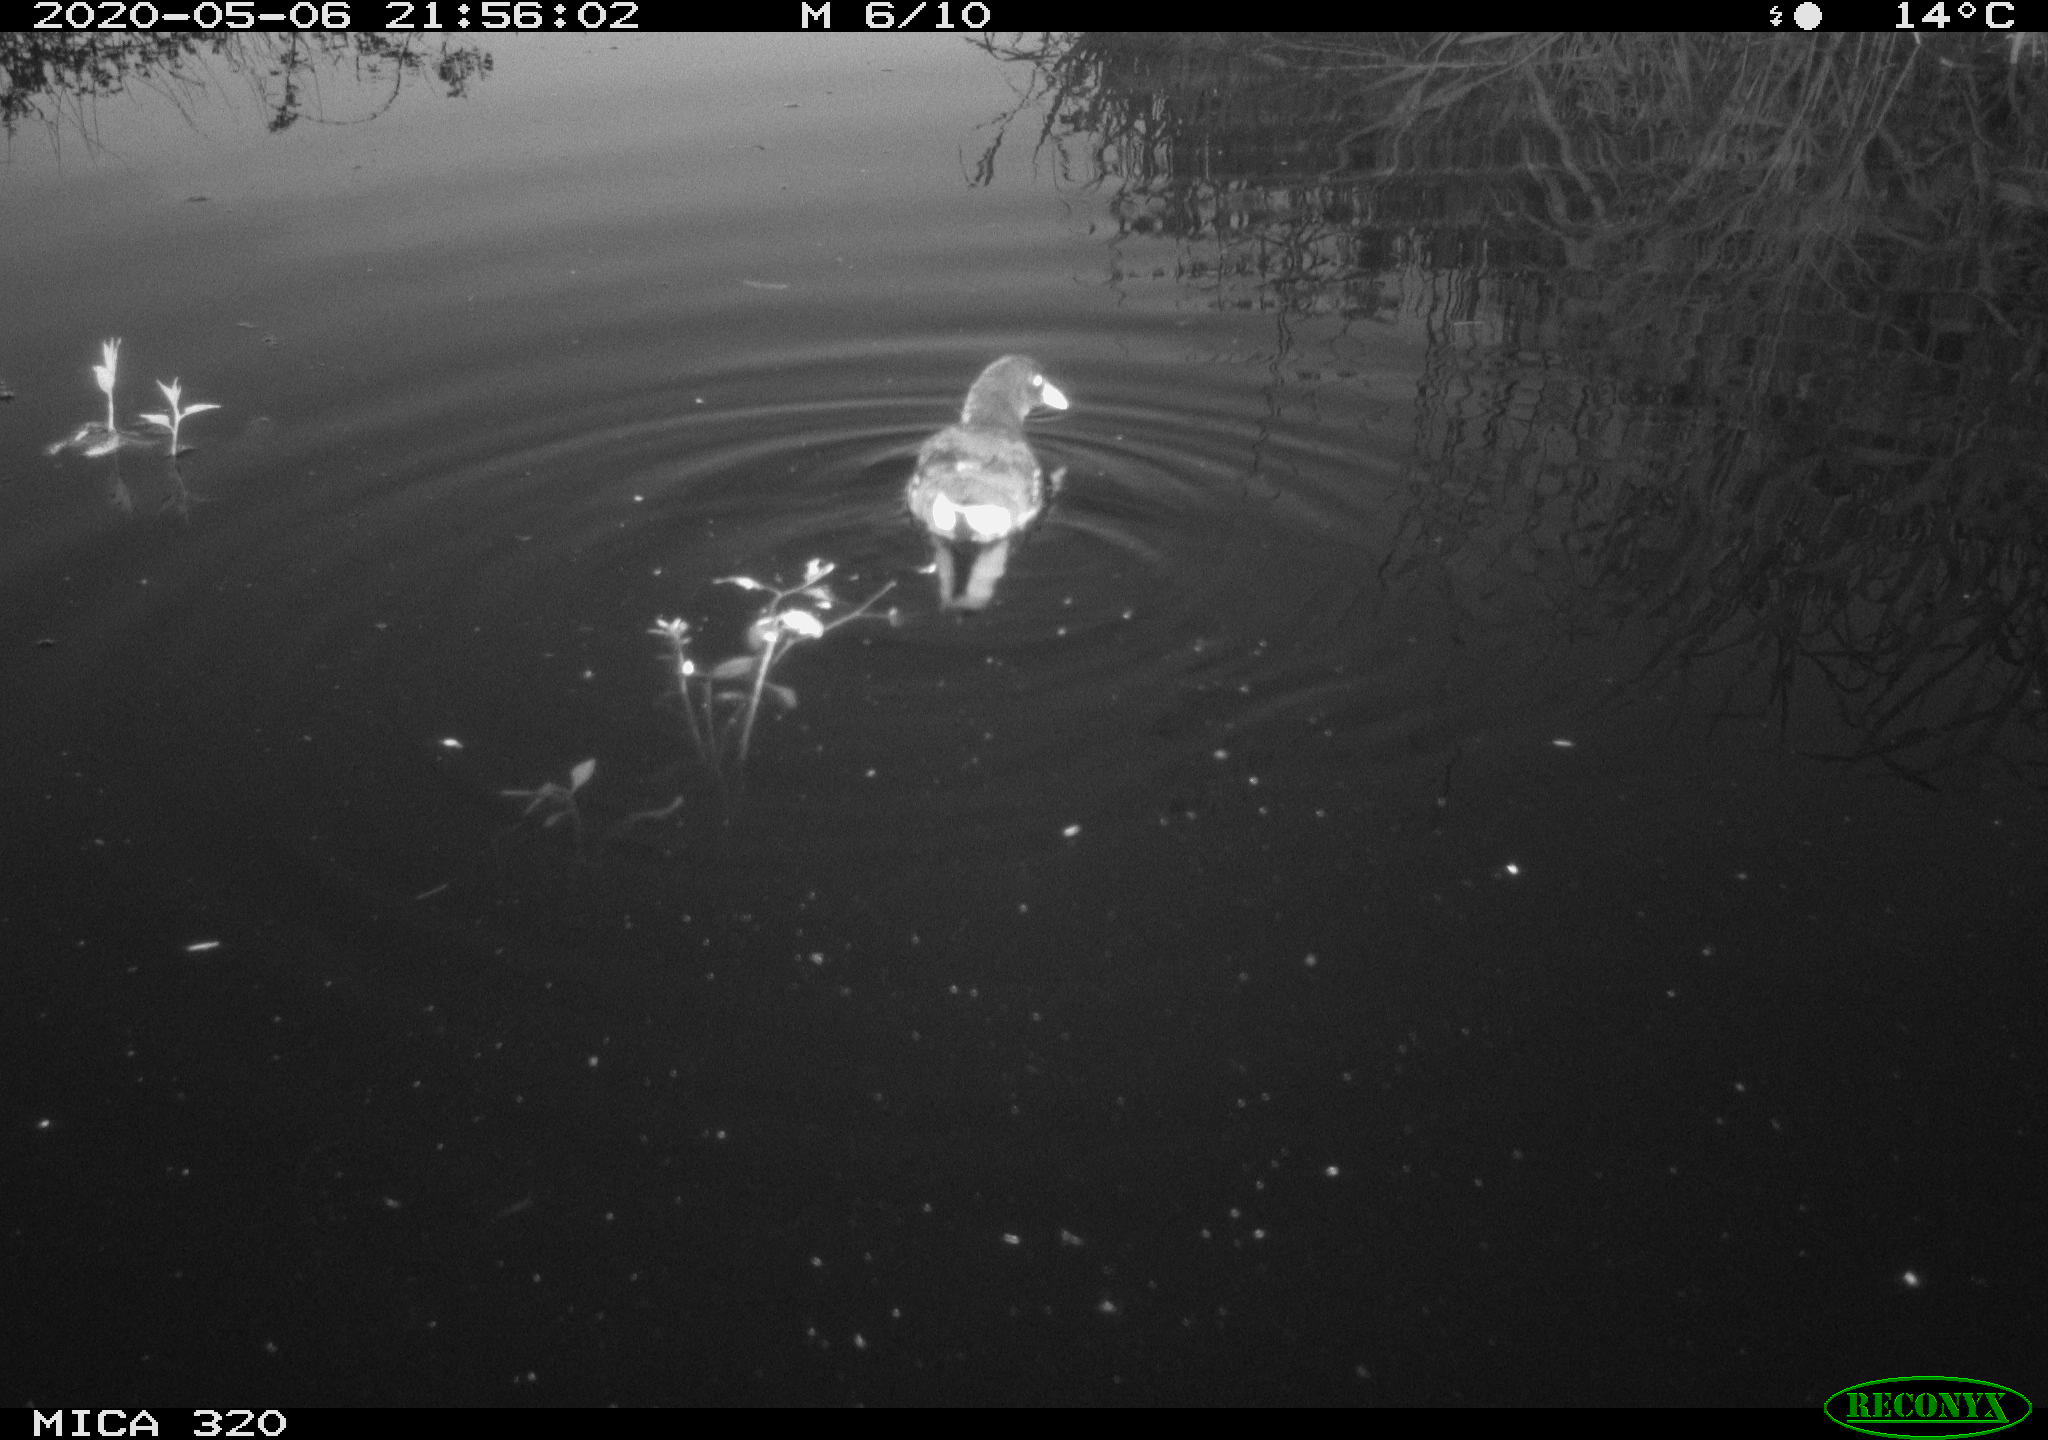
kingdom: Animalia
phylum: Chordata
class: Aves
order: Gruiformes
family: Rallidae
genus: Gallinula
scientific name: Gallinula chloropus
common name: Common moorhen
